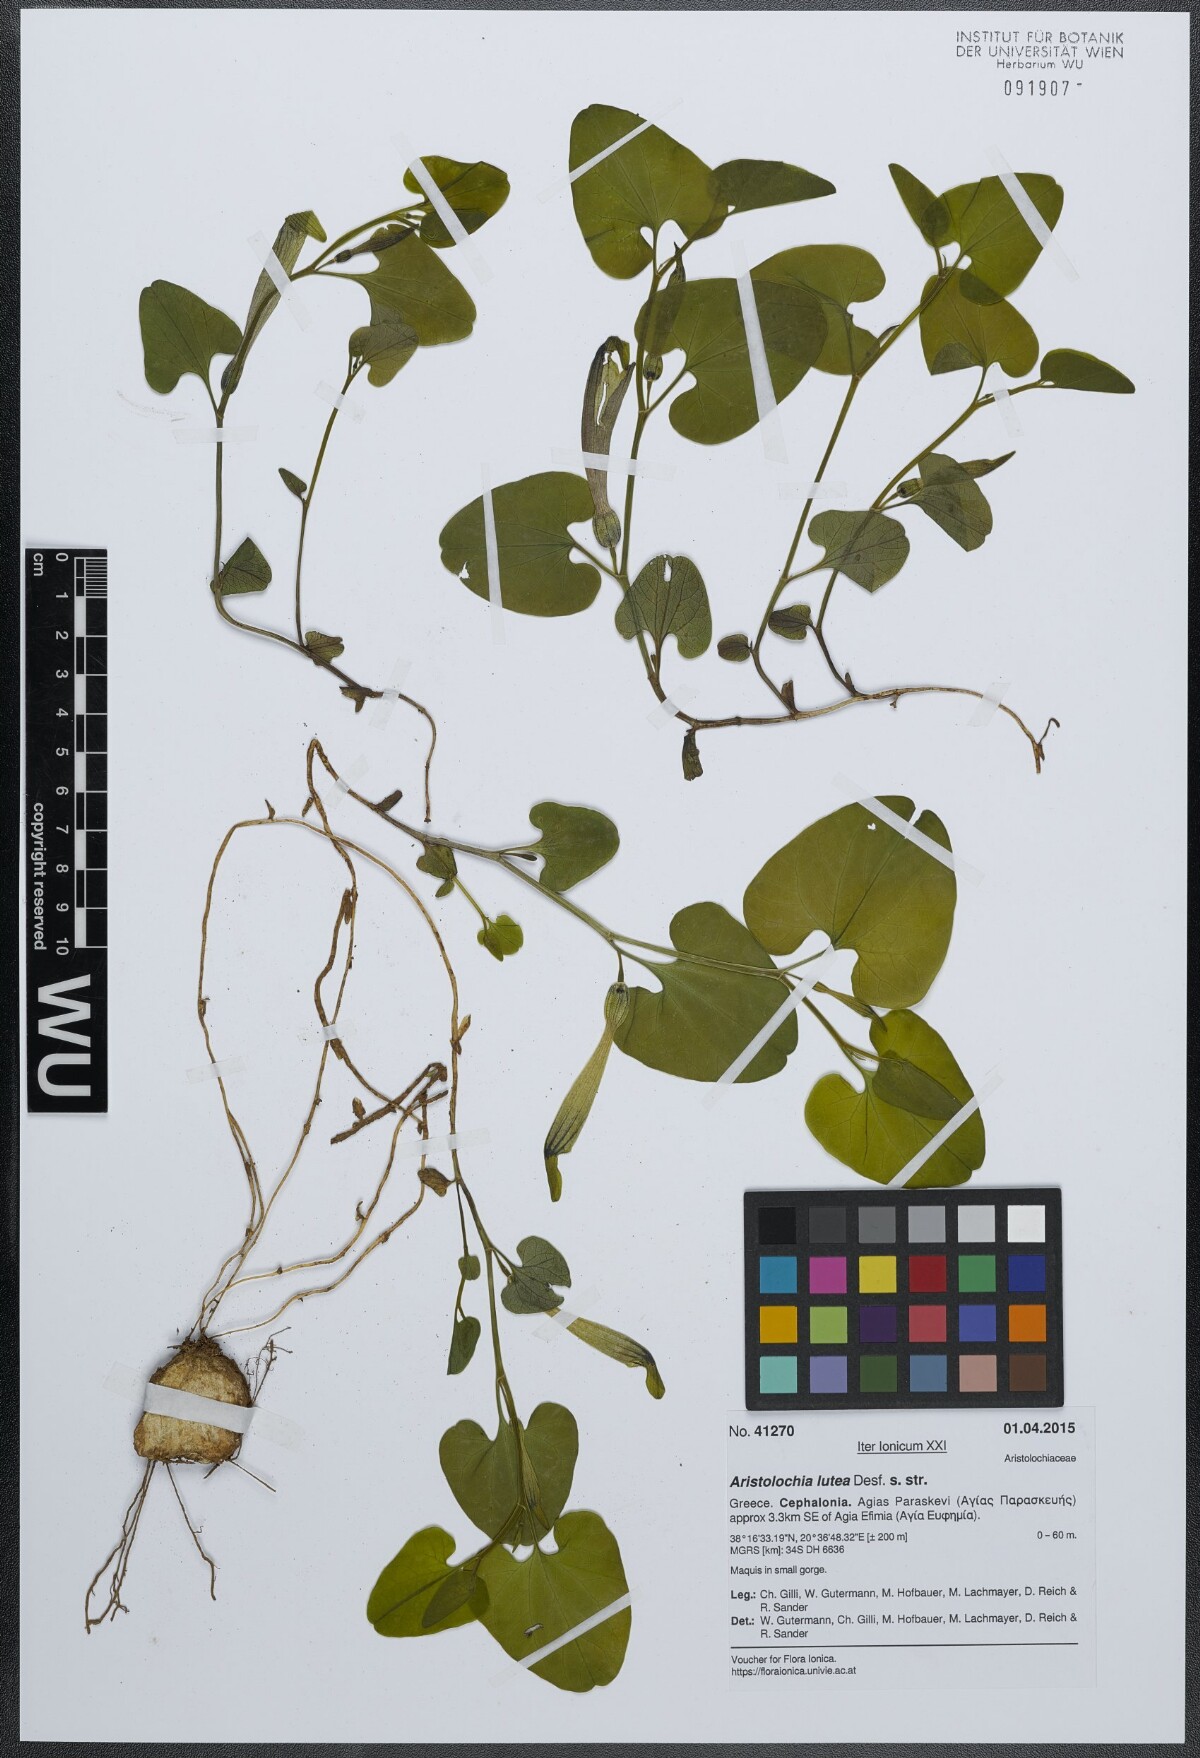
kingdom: Plantae
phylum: Tracheophyta
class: Magnoliopsida
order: Piperales
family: Aristolochiaceae
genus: Aristolochia
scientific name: Aristolochia lutea
